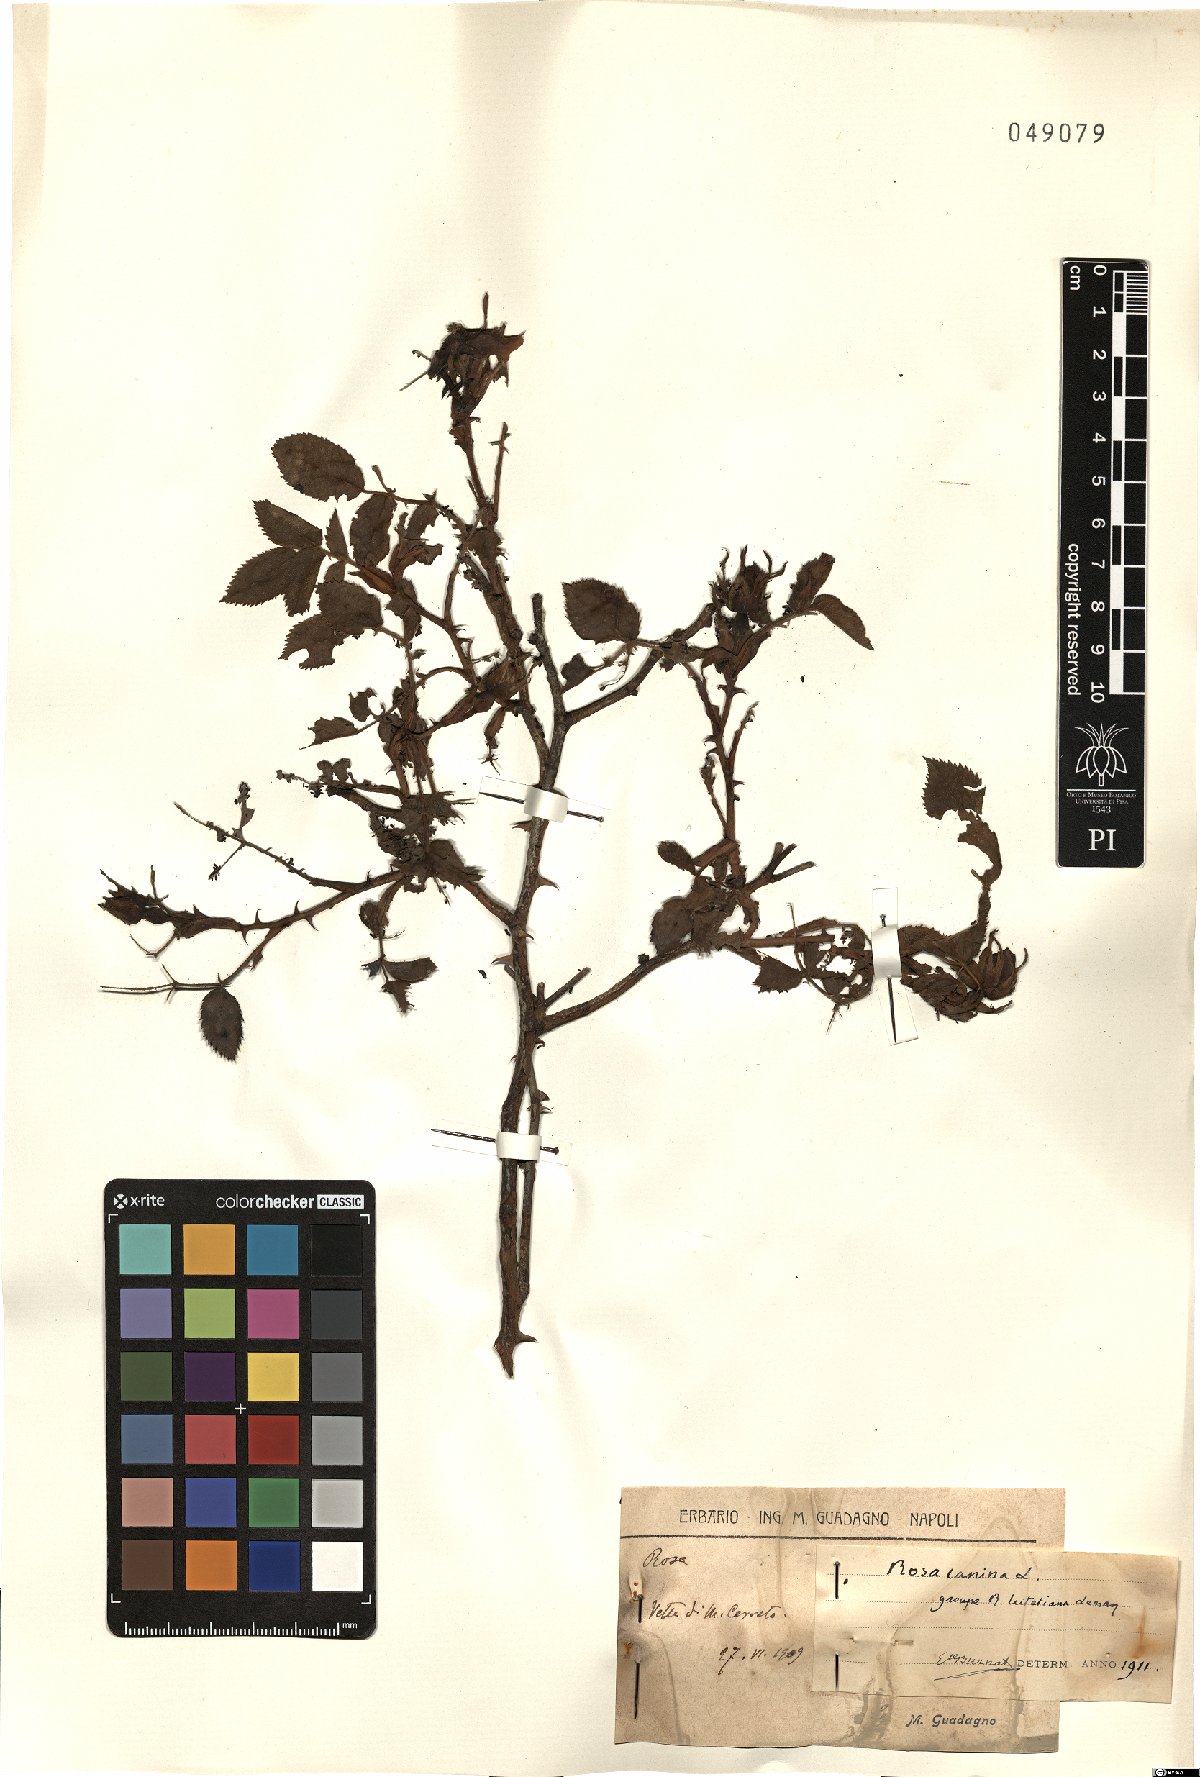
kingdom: Plantae
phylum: Tracheophyta
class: Magnoliopsida
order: Rosales
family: Rosaceae
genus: Rosa
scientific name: Rosa canina
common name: Dog rose
